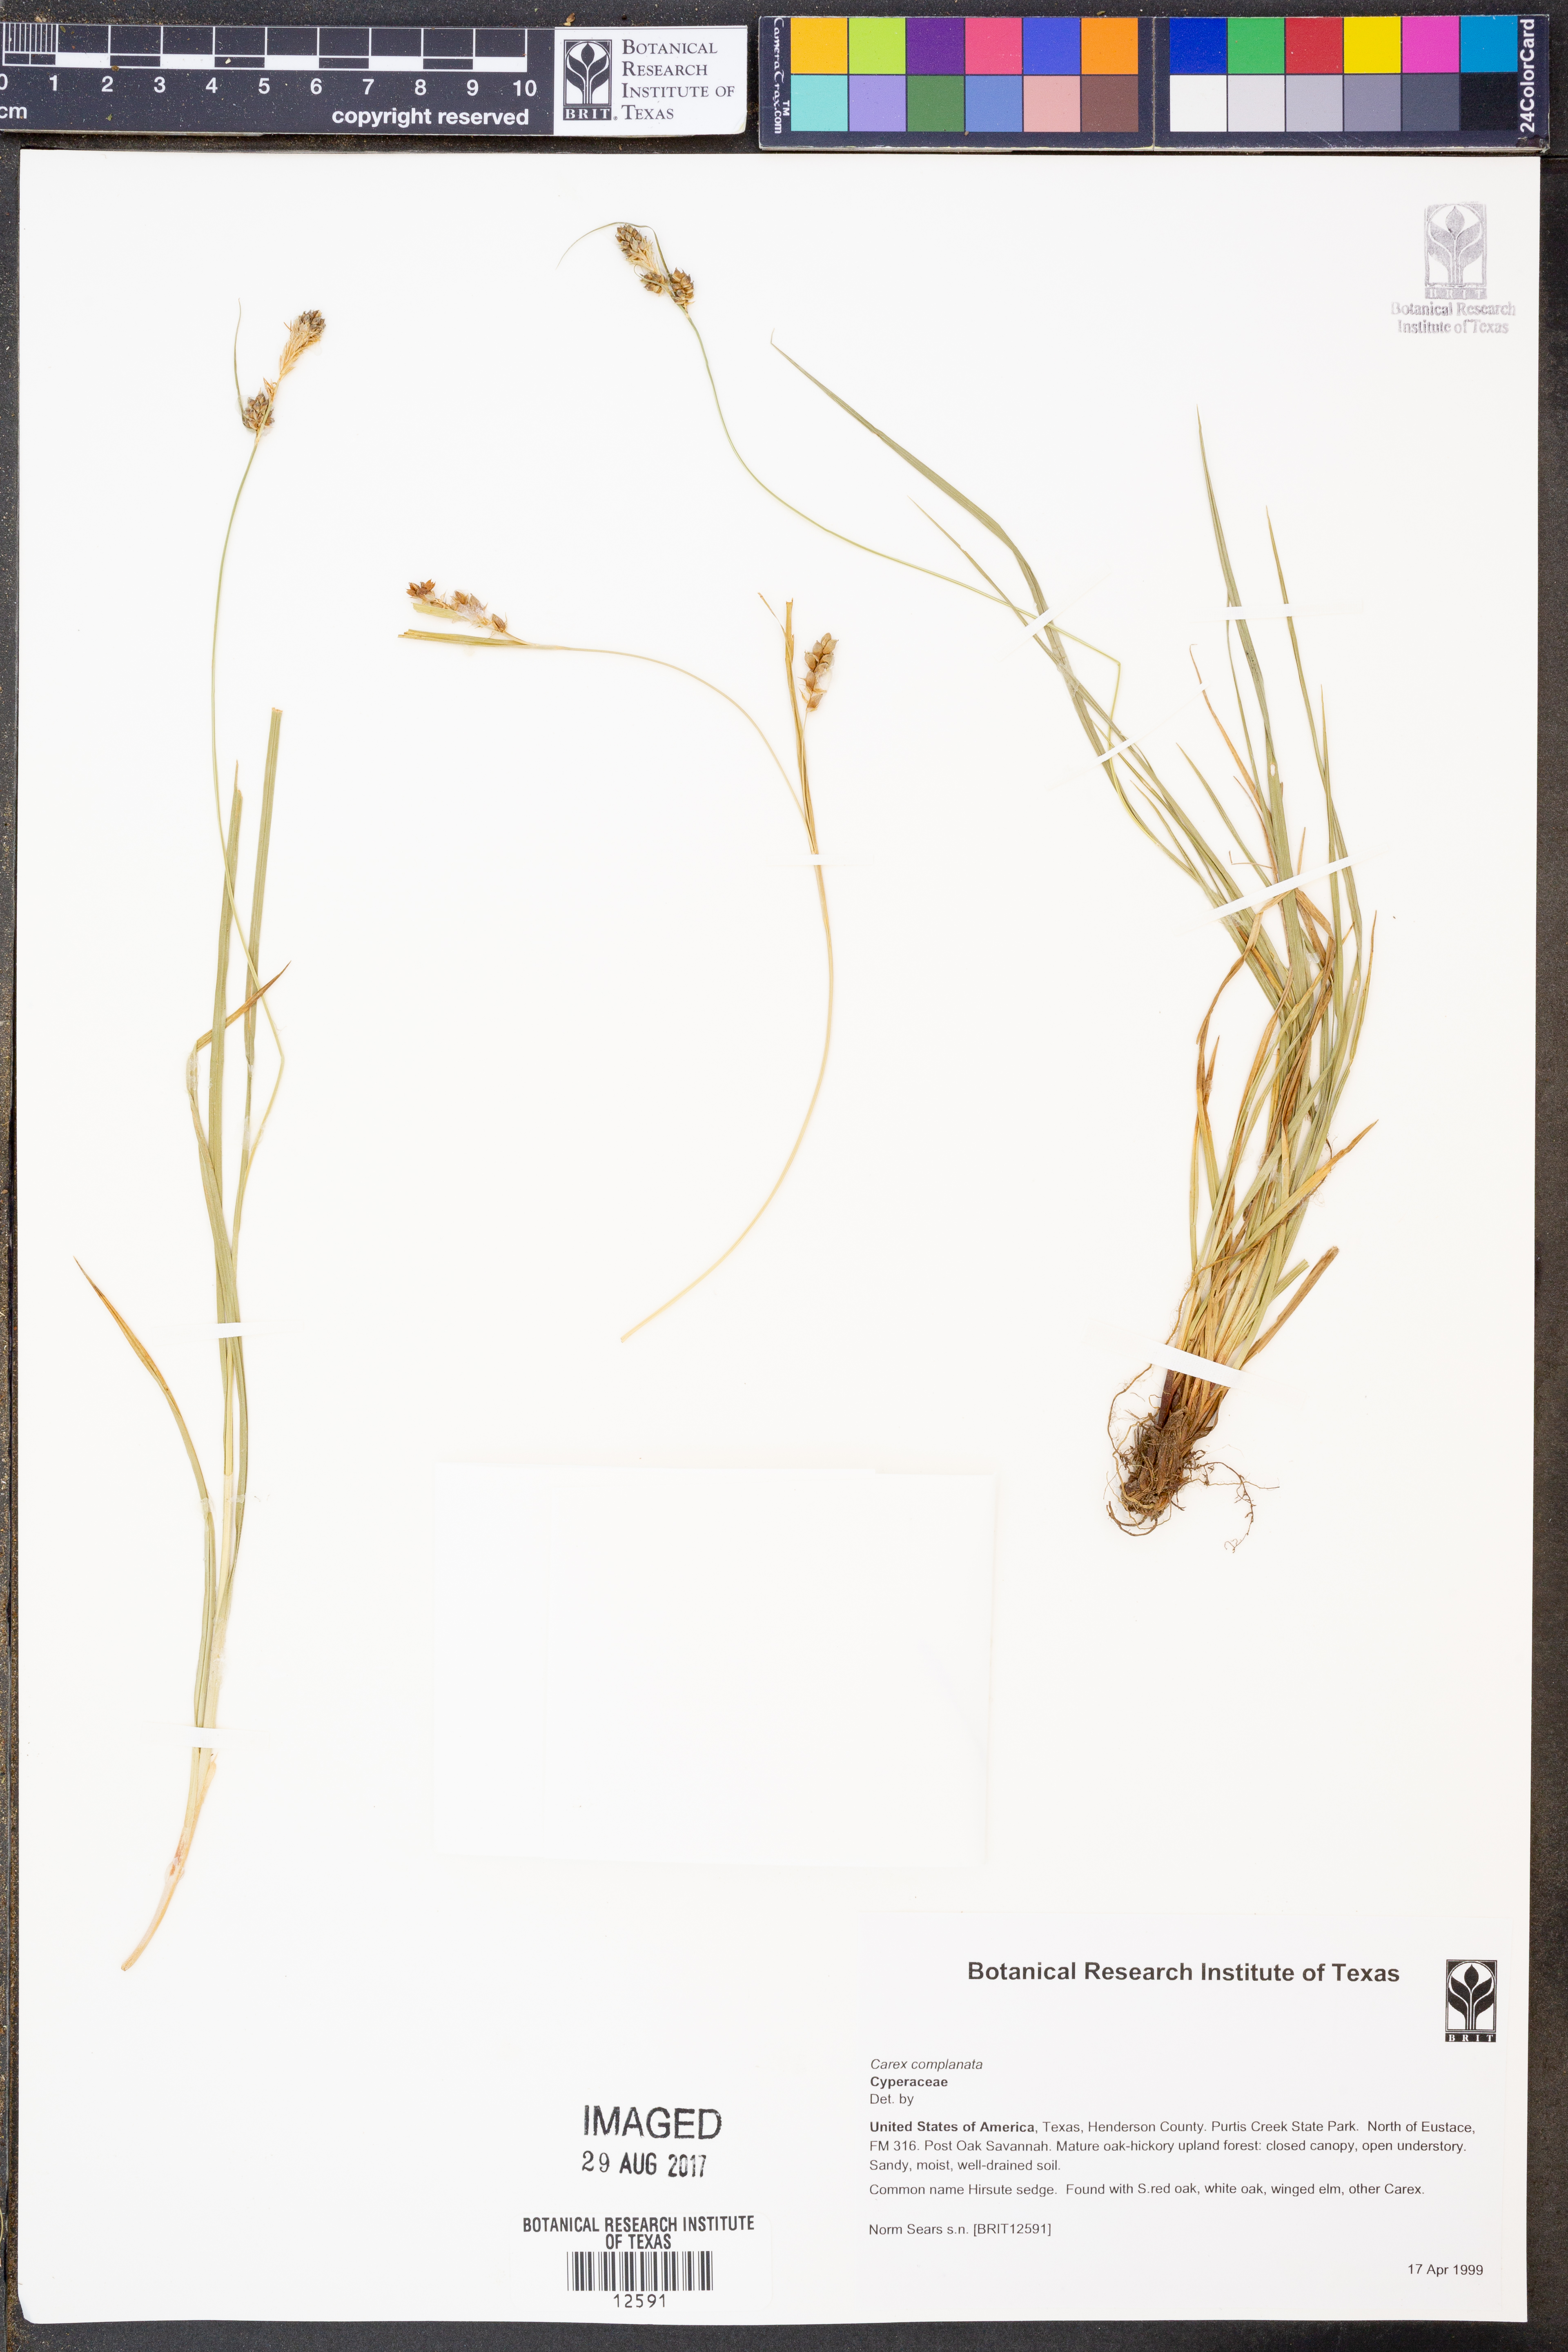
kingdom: Plantae
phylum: Tracheophyta
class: Liliopsida
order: Poales
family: Cyperaceae
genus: Carex
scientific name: Carex complanata
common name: Hirsute sedge
